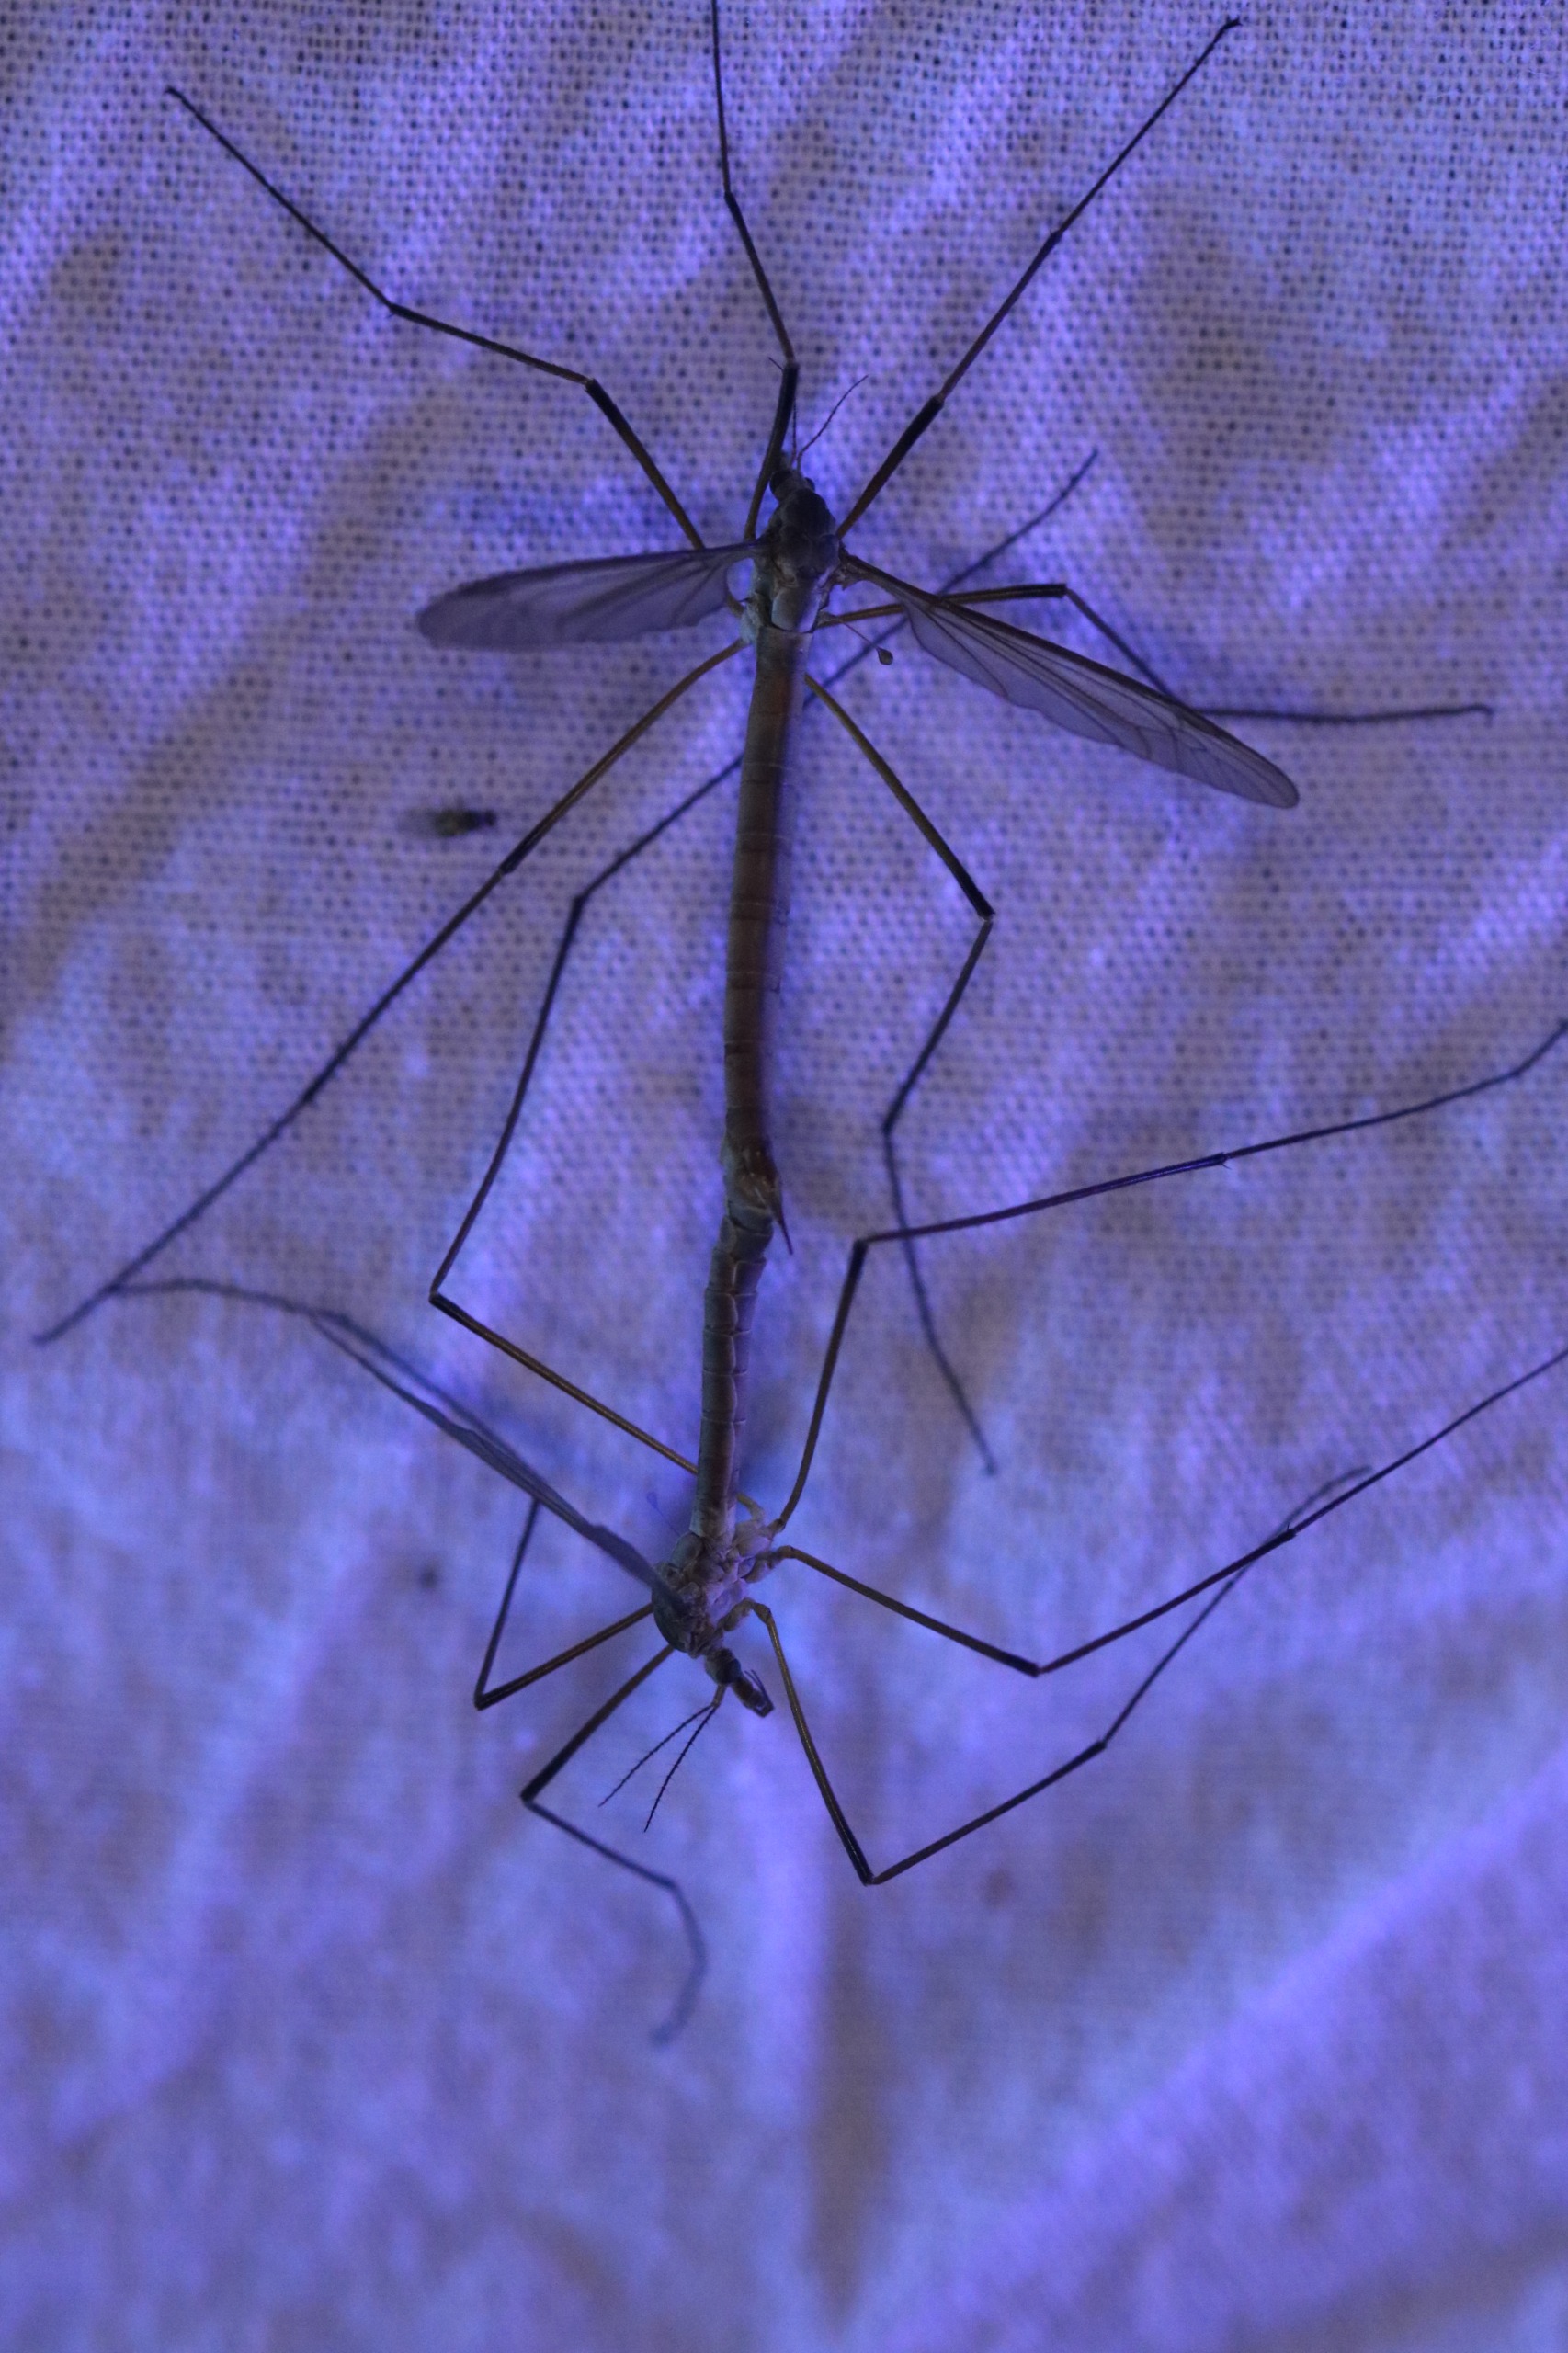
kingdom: Animalia
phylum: Arthropoda
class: Insecta
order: Diptera
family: Tipulidae
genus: Tipula
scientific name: Tipula paludosa
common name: Mosestankelben
